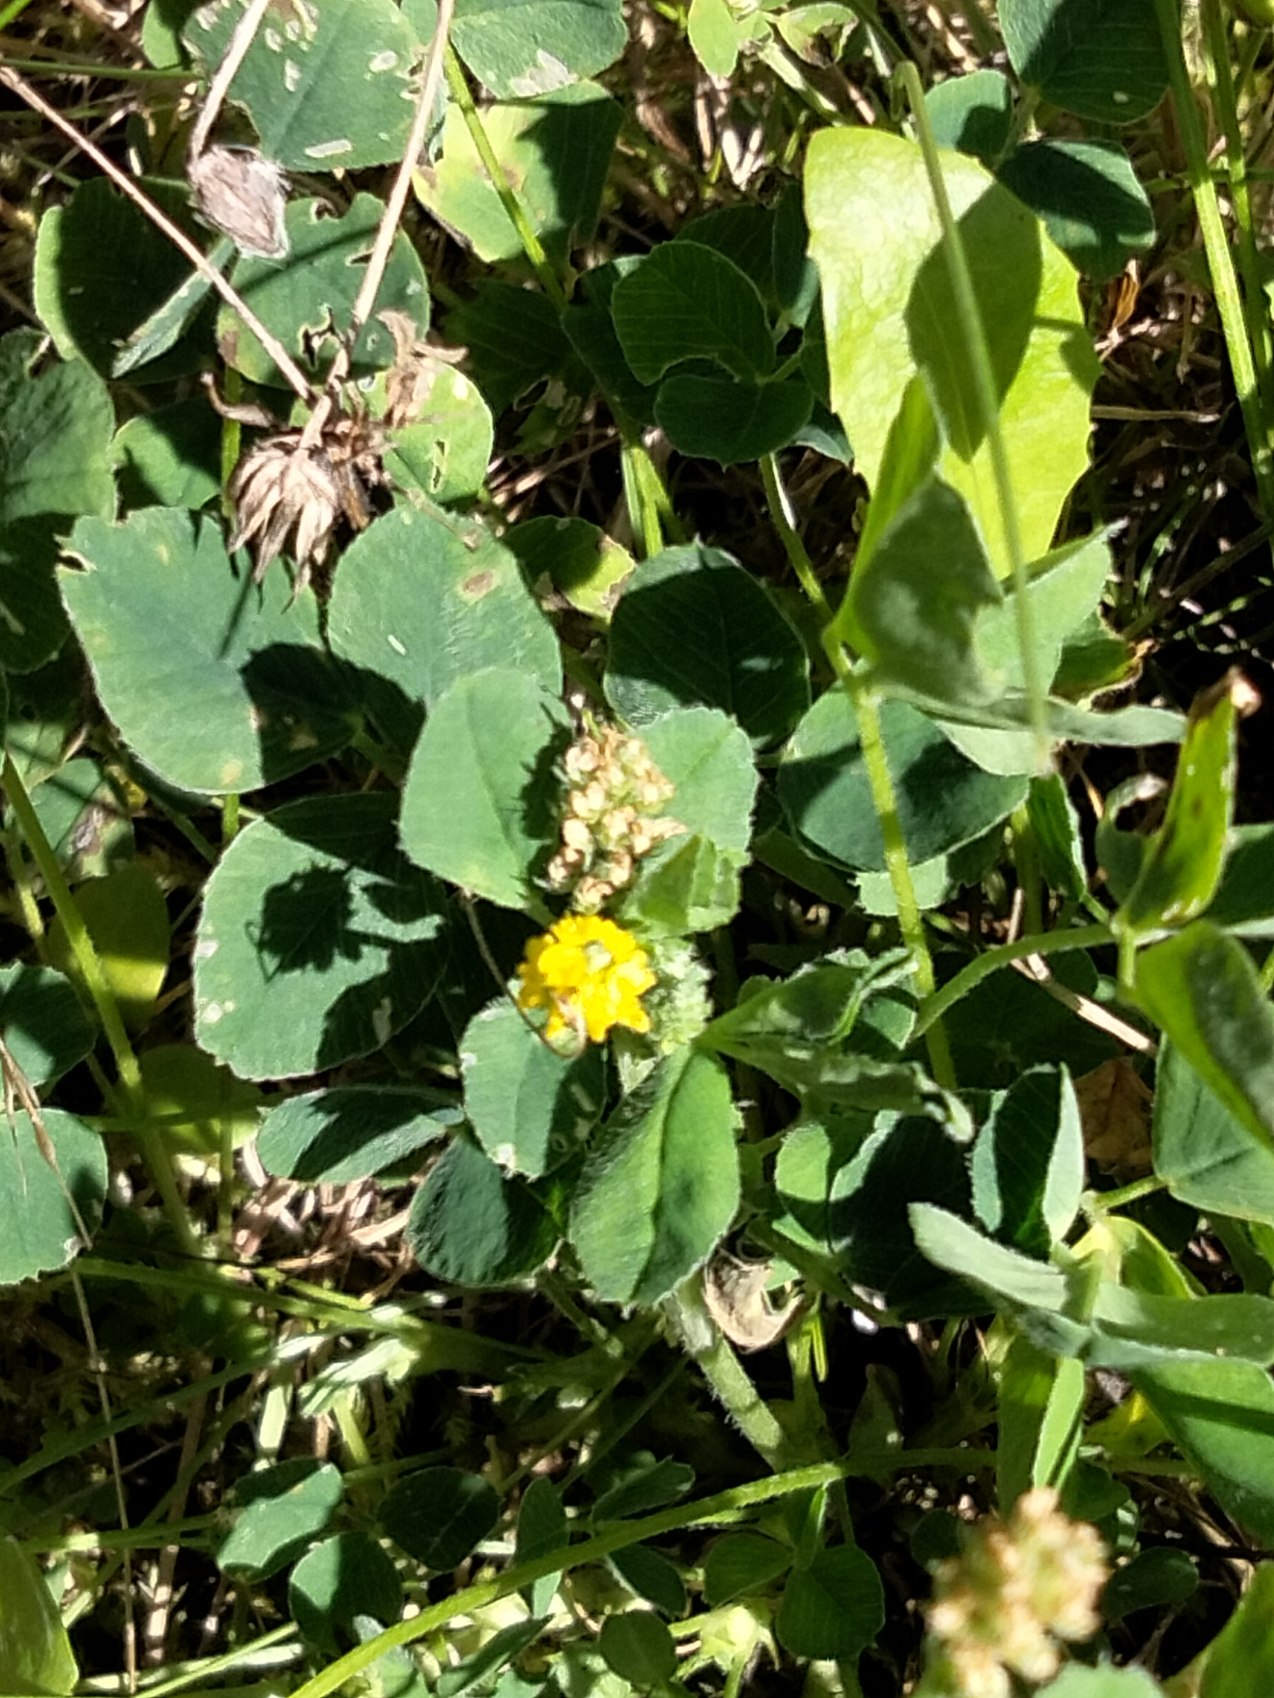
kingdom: Plantae
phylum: Tracheophyta
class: Magnoliopsida
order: Fabales
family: Fabaceae
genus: Medicago
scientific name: Medicago lupulina
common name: Humle-sneglebælg
